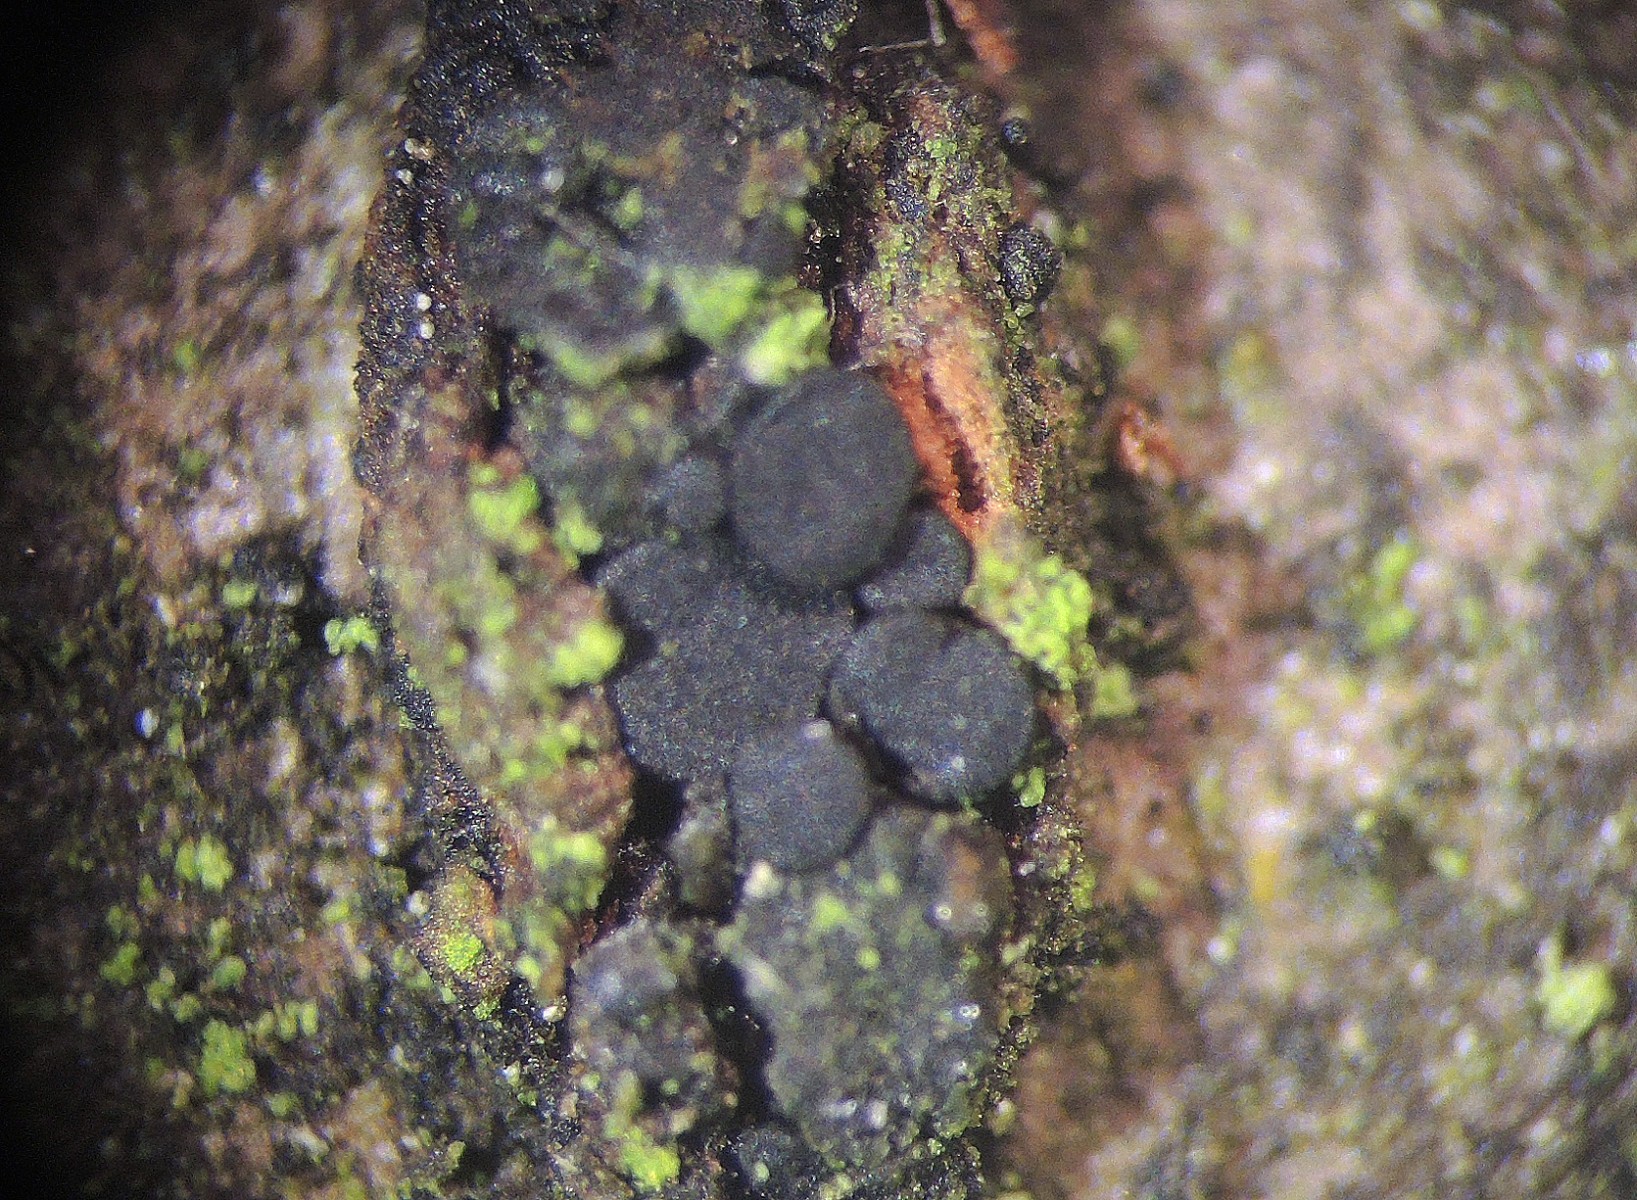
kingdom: Fungi
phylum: Ascomycota
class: Leotiomycetes
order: Helotiales
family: Dermateaceae
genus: Dermea
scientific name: Dermea cerasi
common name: kirsebær-klyngeskive
